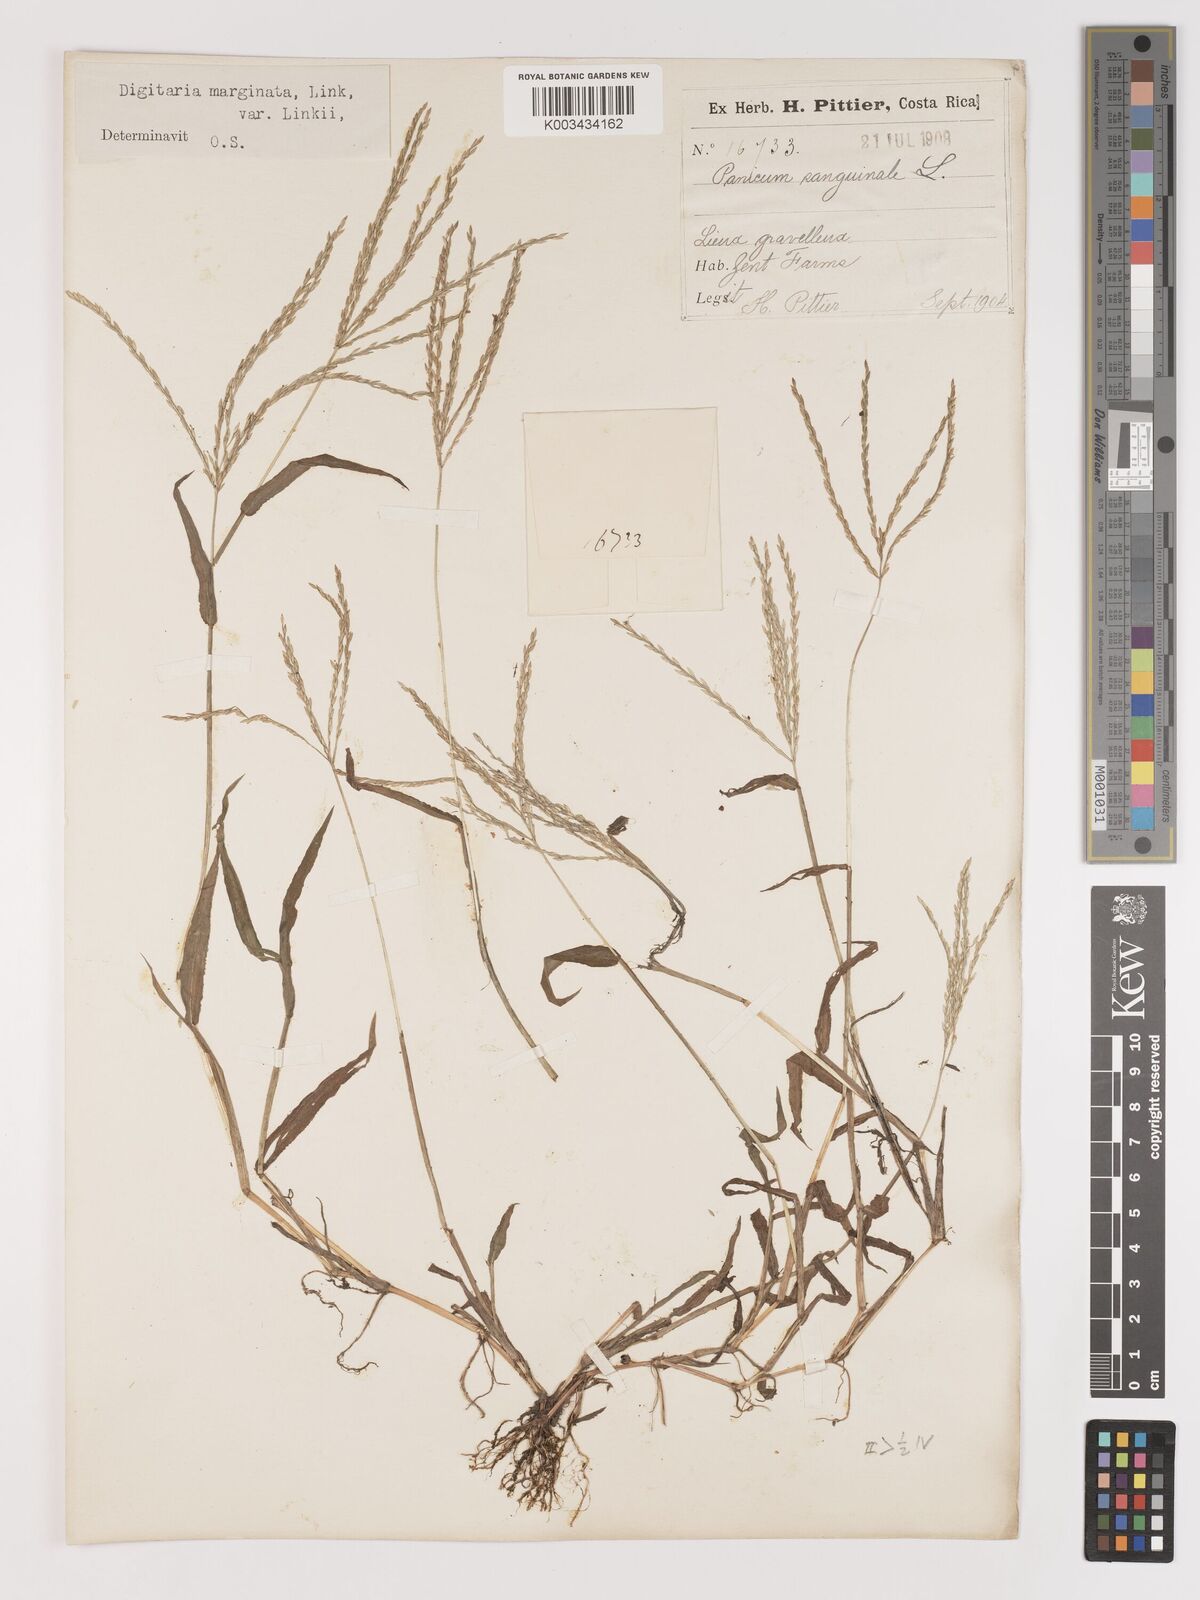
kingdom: Plantae
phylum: Tracheophyta
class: Liliopsida
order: Poales
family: Poaceae
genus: Digitaria
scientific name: Digitaria ciliaris
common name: Tropical finger-grass
